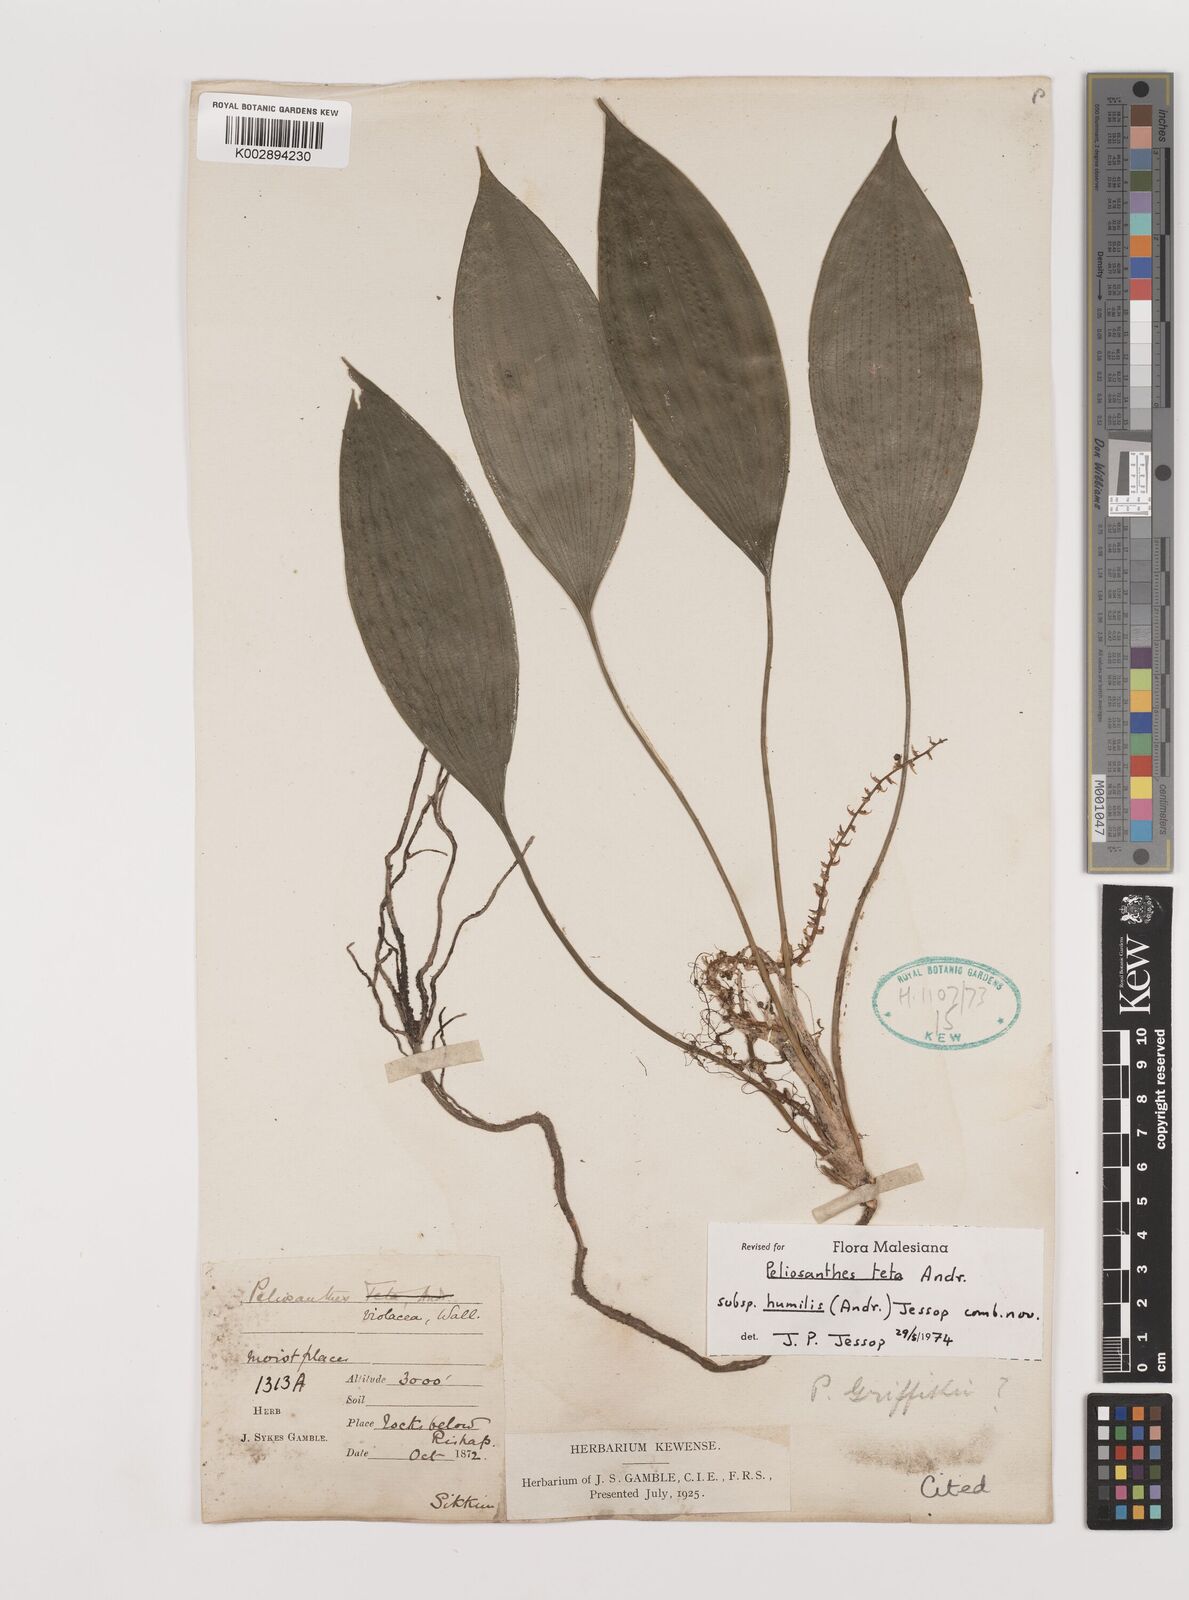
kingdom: Plantae
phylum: Tracheophyta
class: Liliopsida
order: Asparagales
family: Asparagaceae
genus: Peliosanthes
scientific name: Peliosanthes teta
